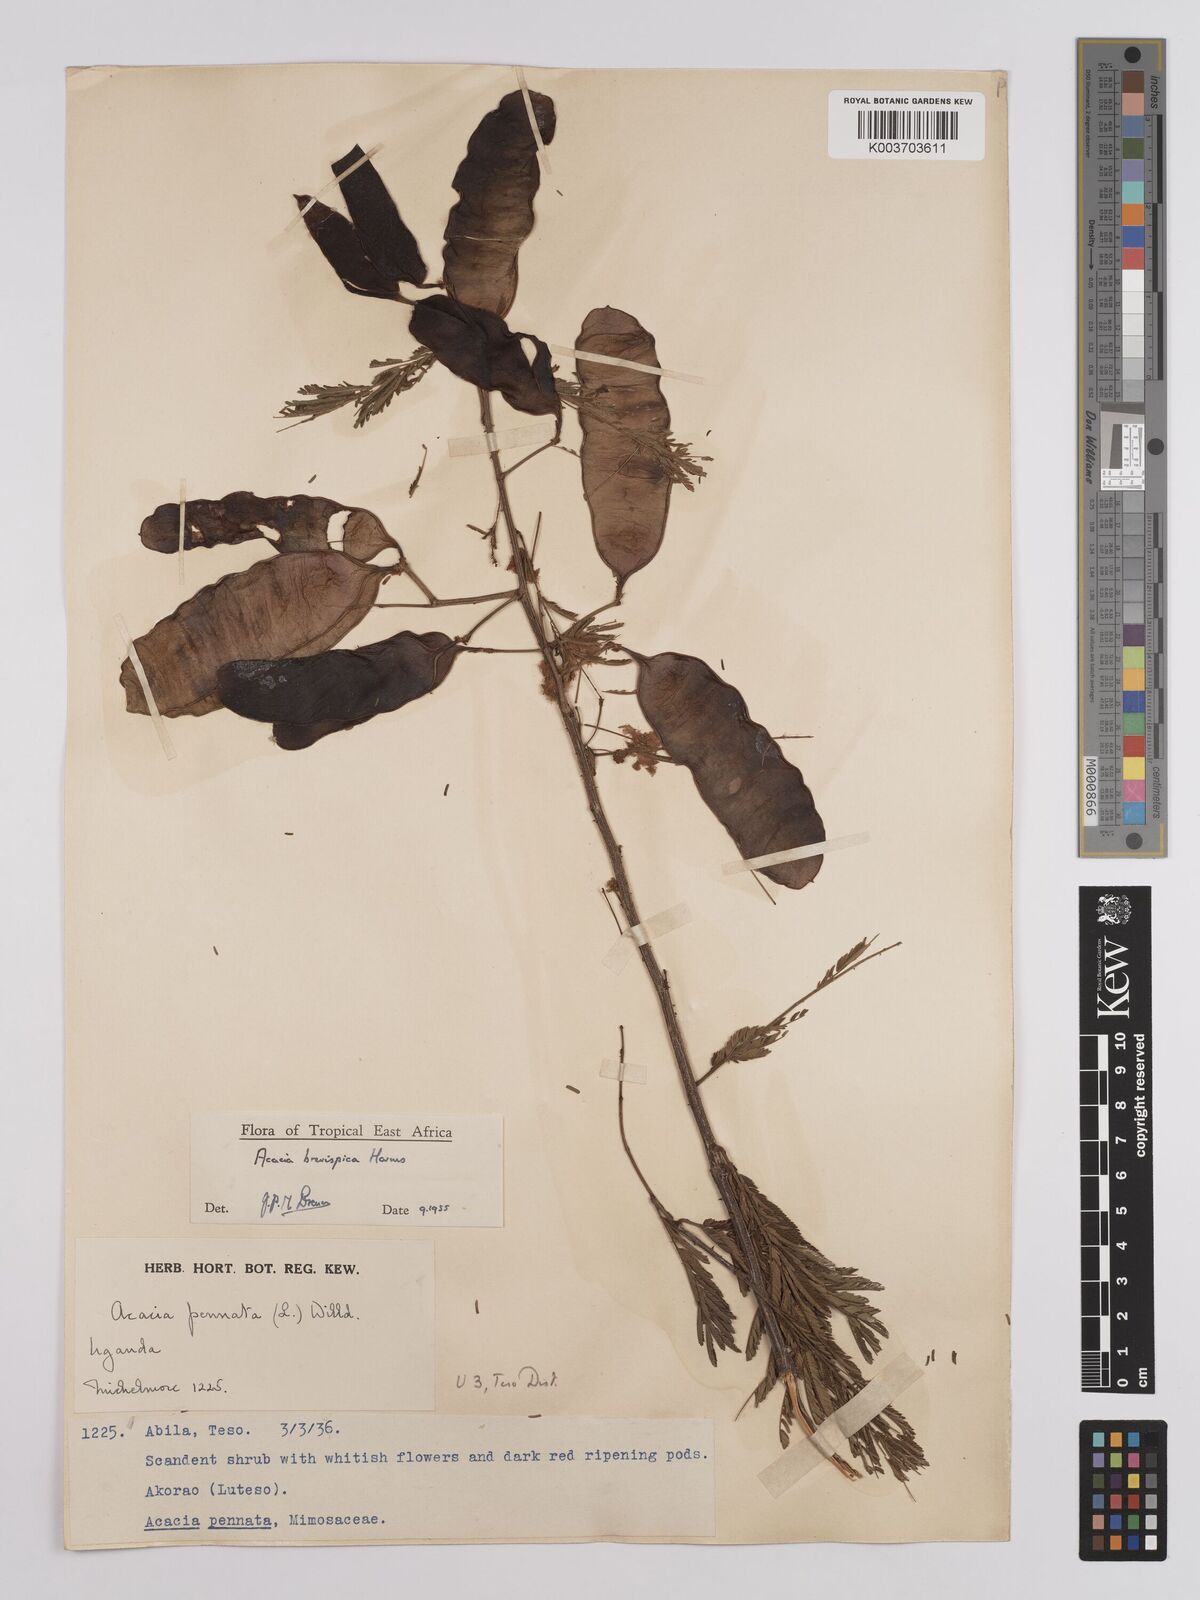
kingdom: Plantae
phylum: Tracheophyta
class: Magnoliopsida
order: Fabales
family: Fabaceae
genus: Senegalia
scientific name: Senegalia brevispica
